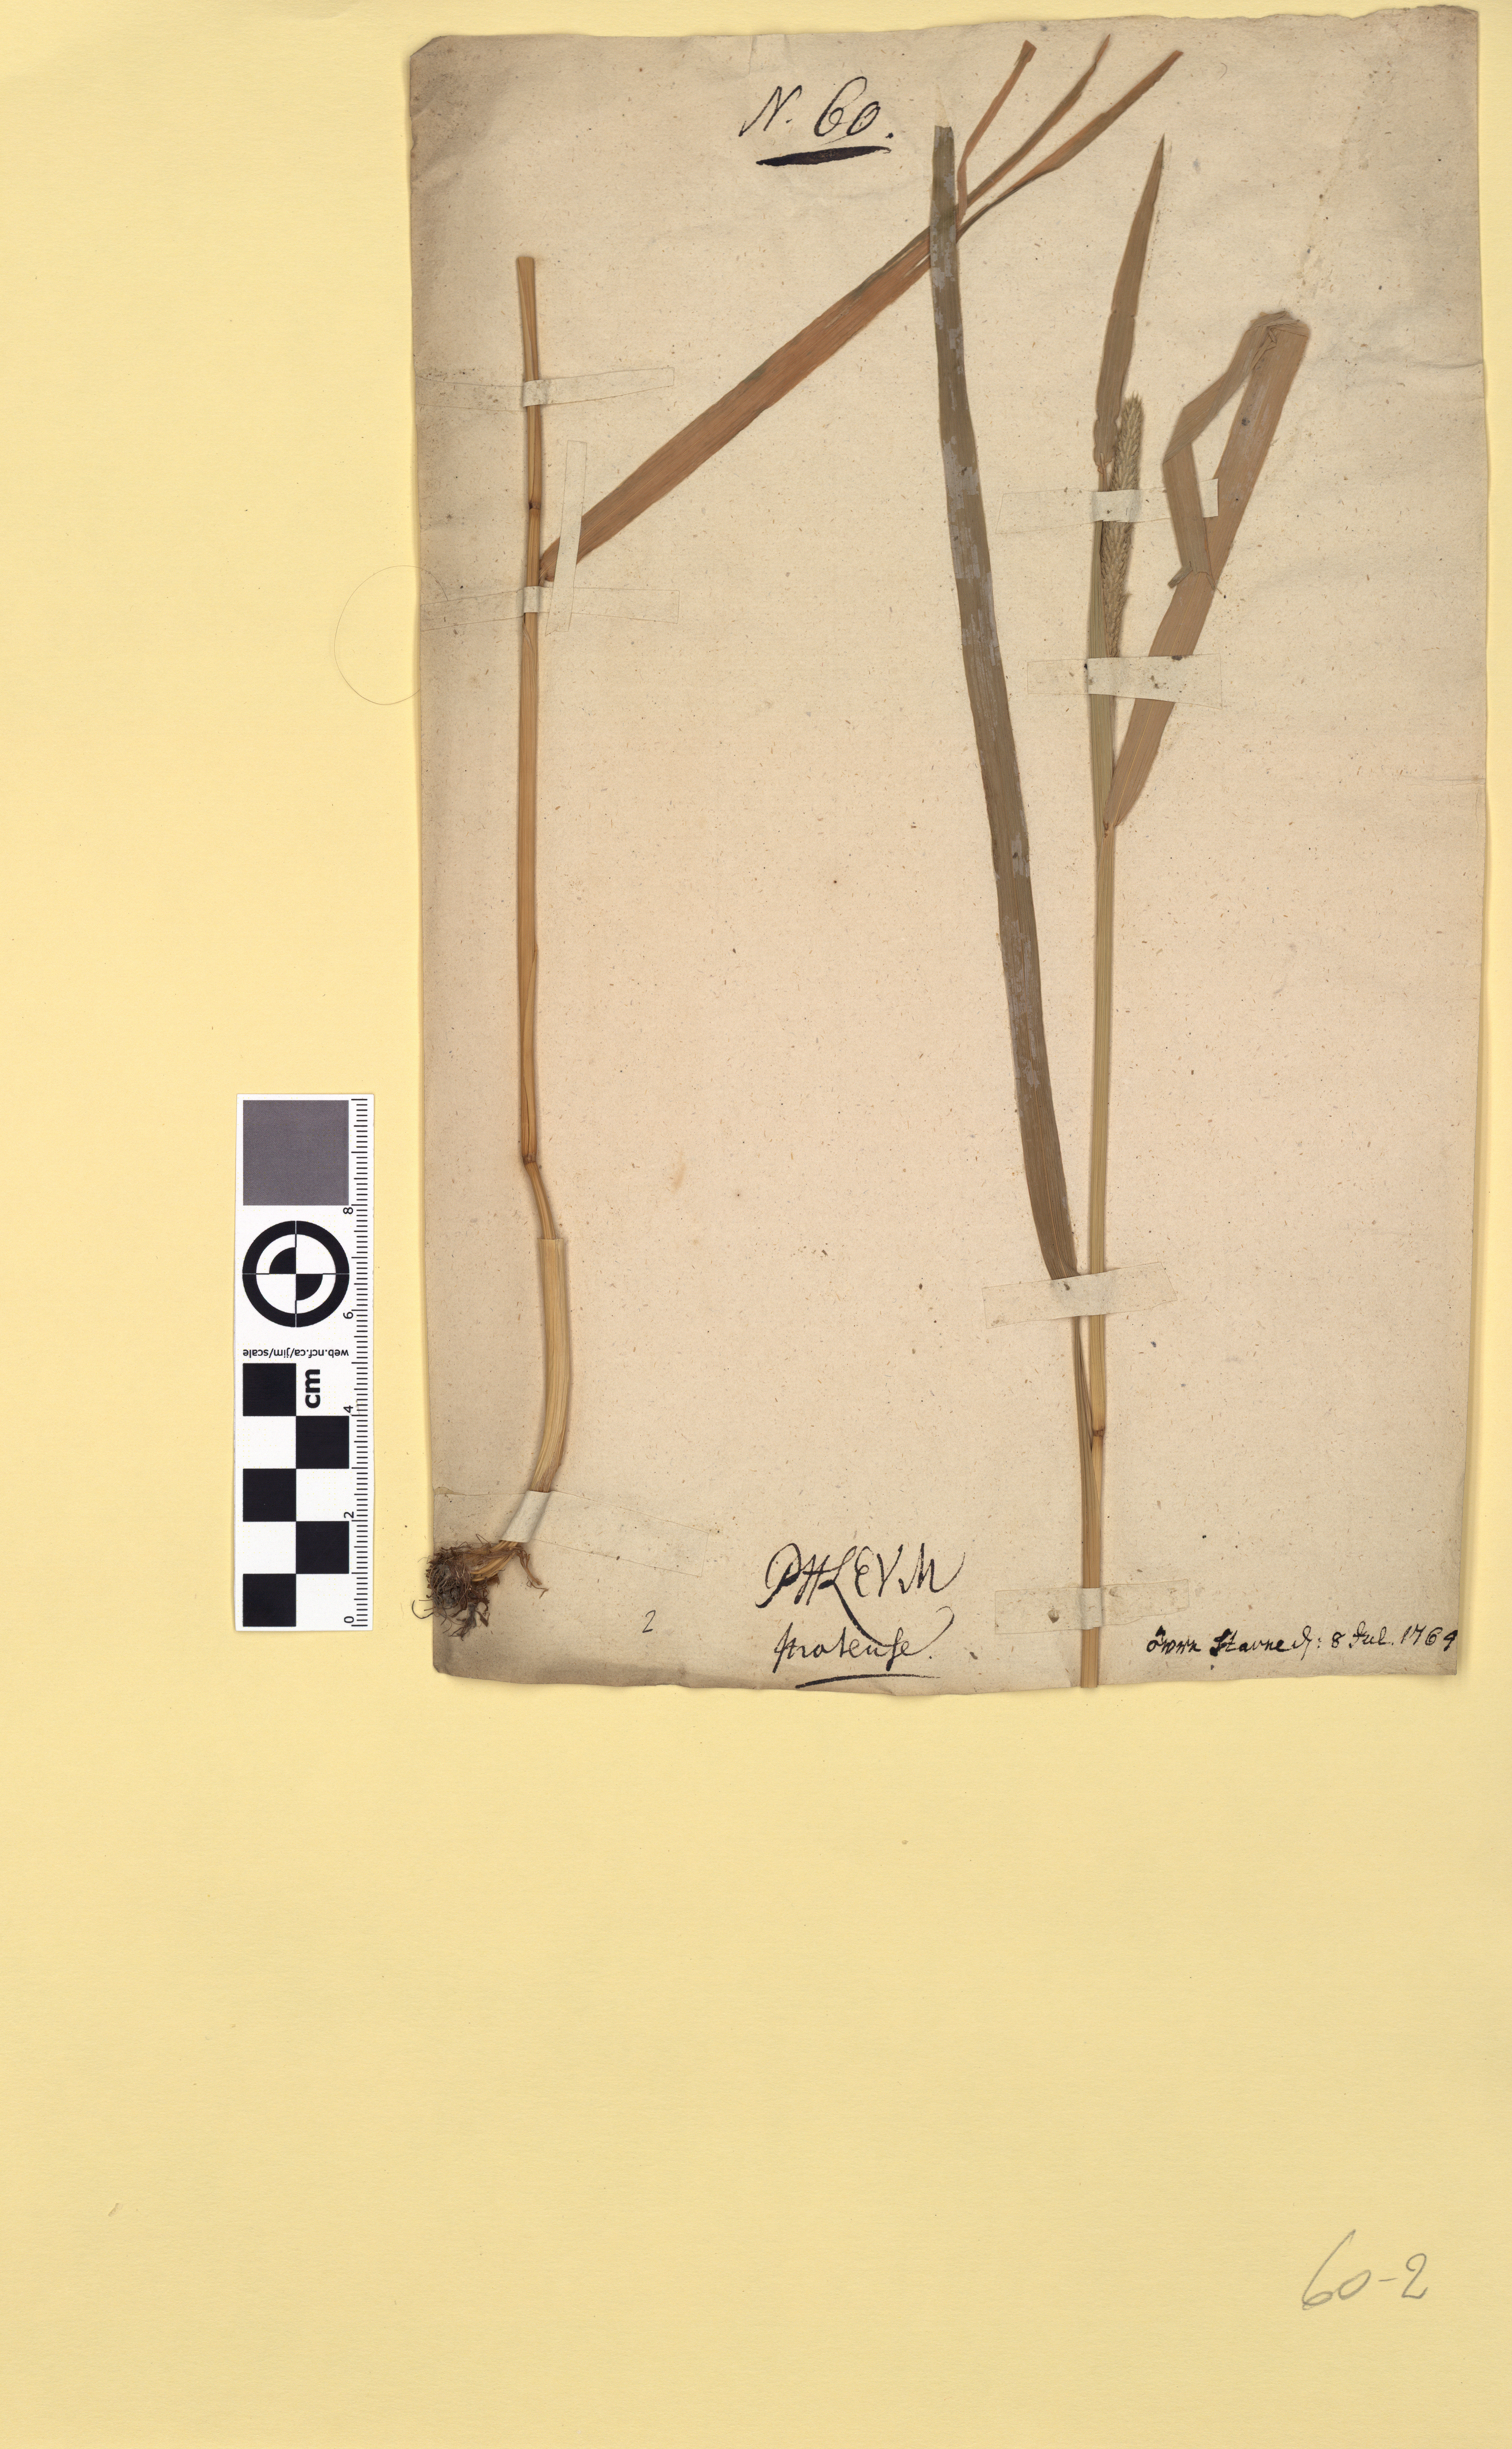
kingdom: Plantae
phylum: Tracheophyta
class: Liliopsida
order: Poales
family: Poaceae
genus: Phleum
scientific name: Phleum pratense
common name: Timothy grass
